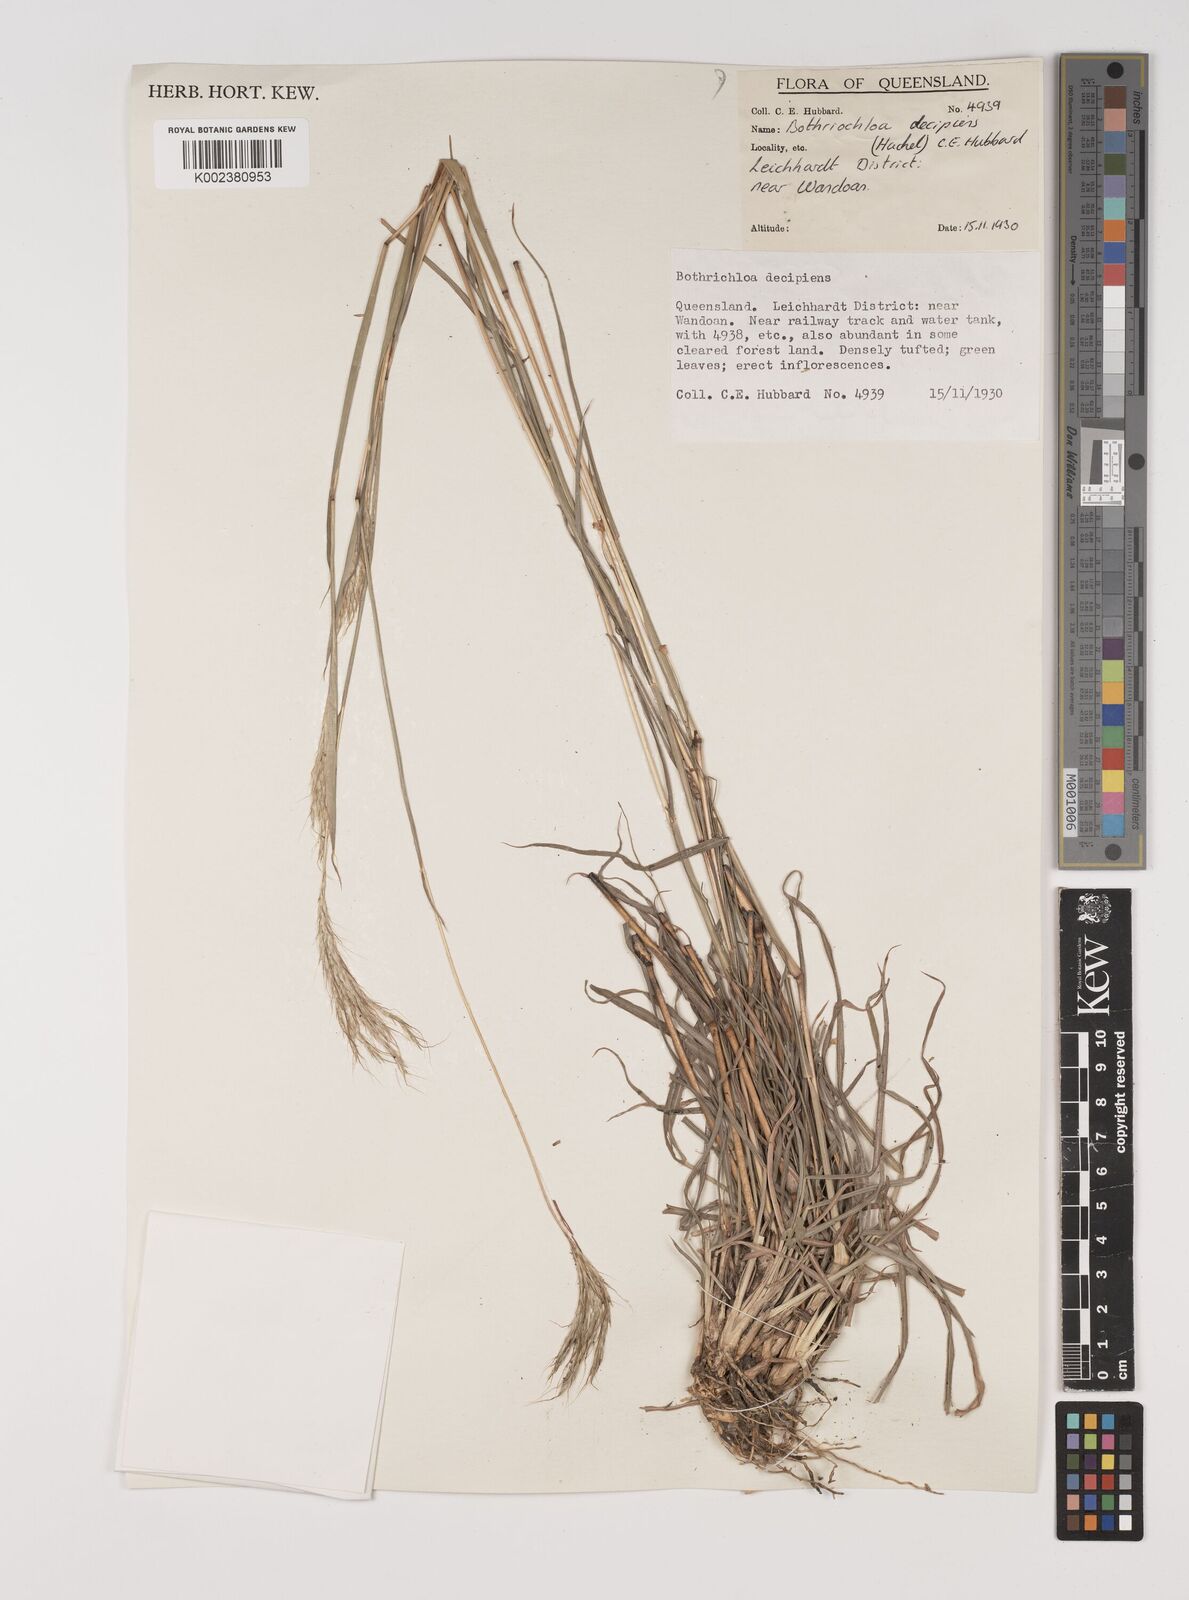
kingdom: Plantae
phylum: Tracheophyta
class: Liliopsida
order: Poales
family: Poaceae
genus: Bothriochloa
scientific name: Bothriochloa decipiens
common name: Pitted-bluegrass
